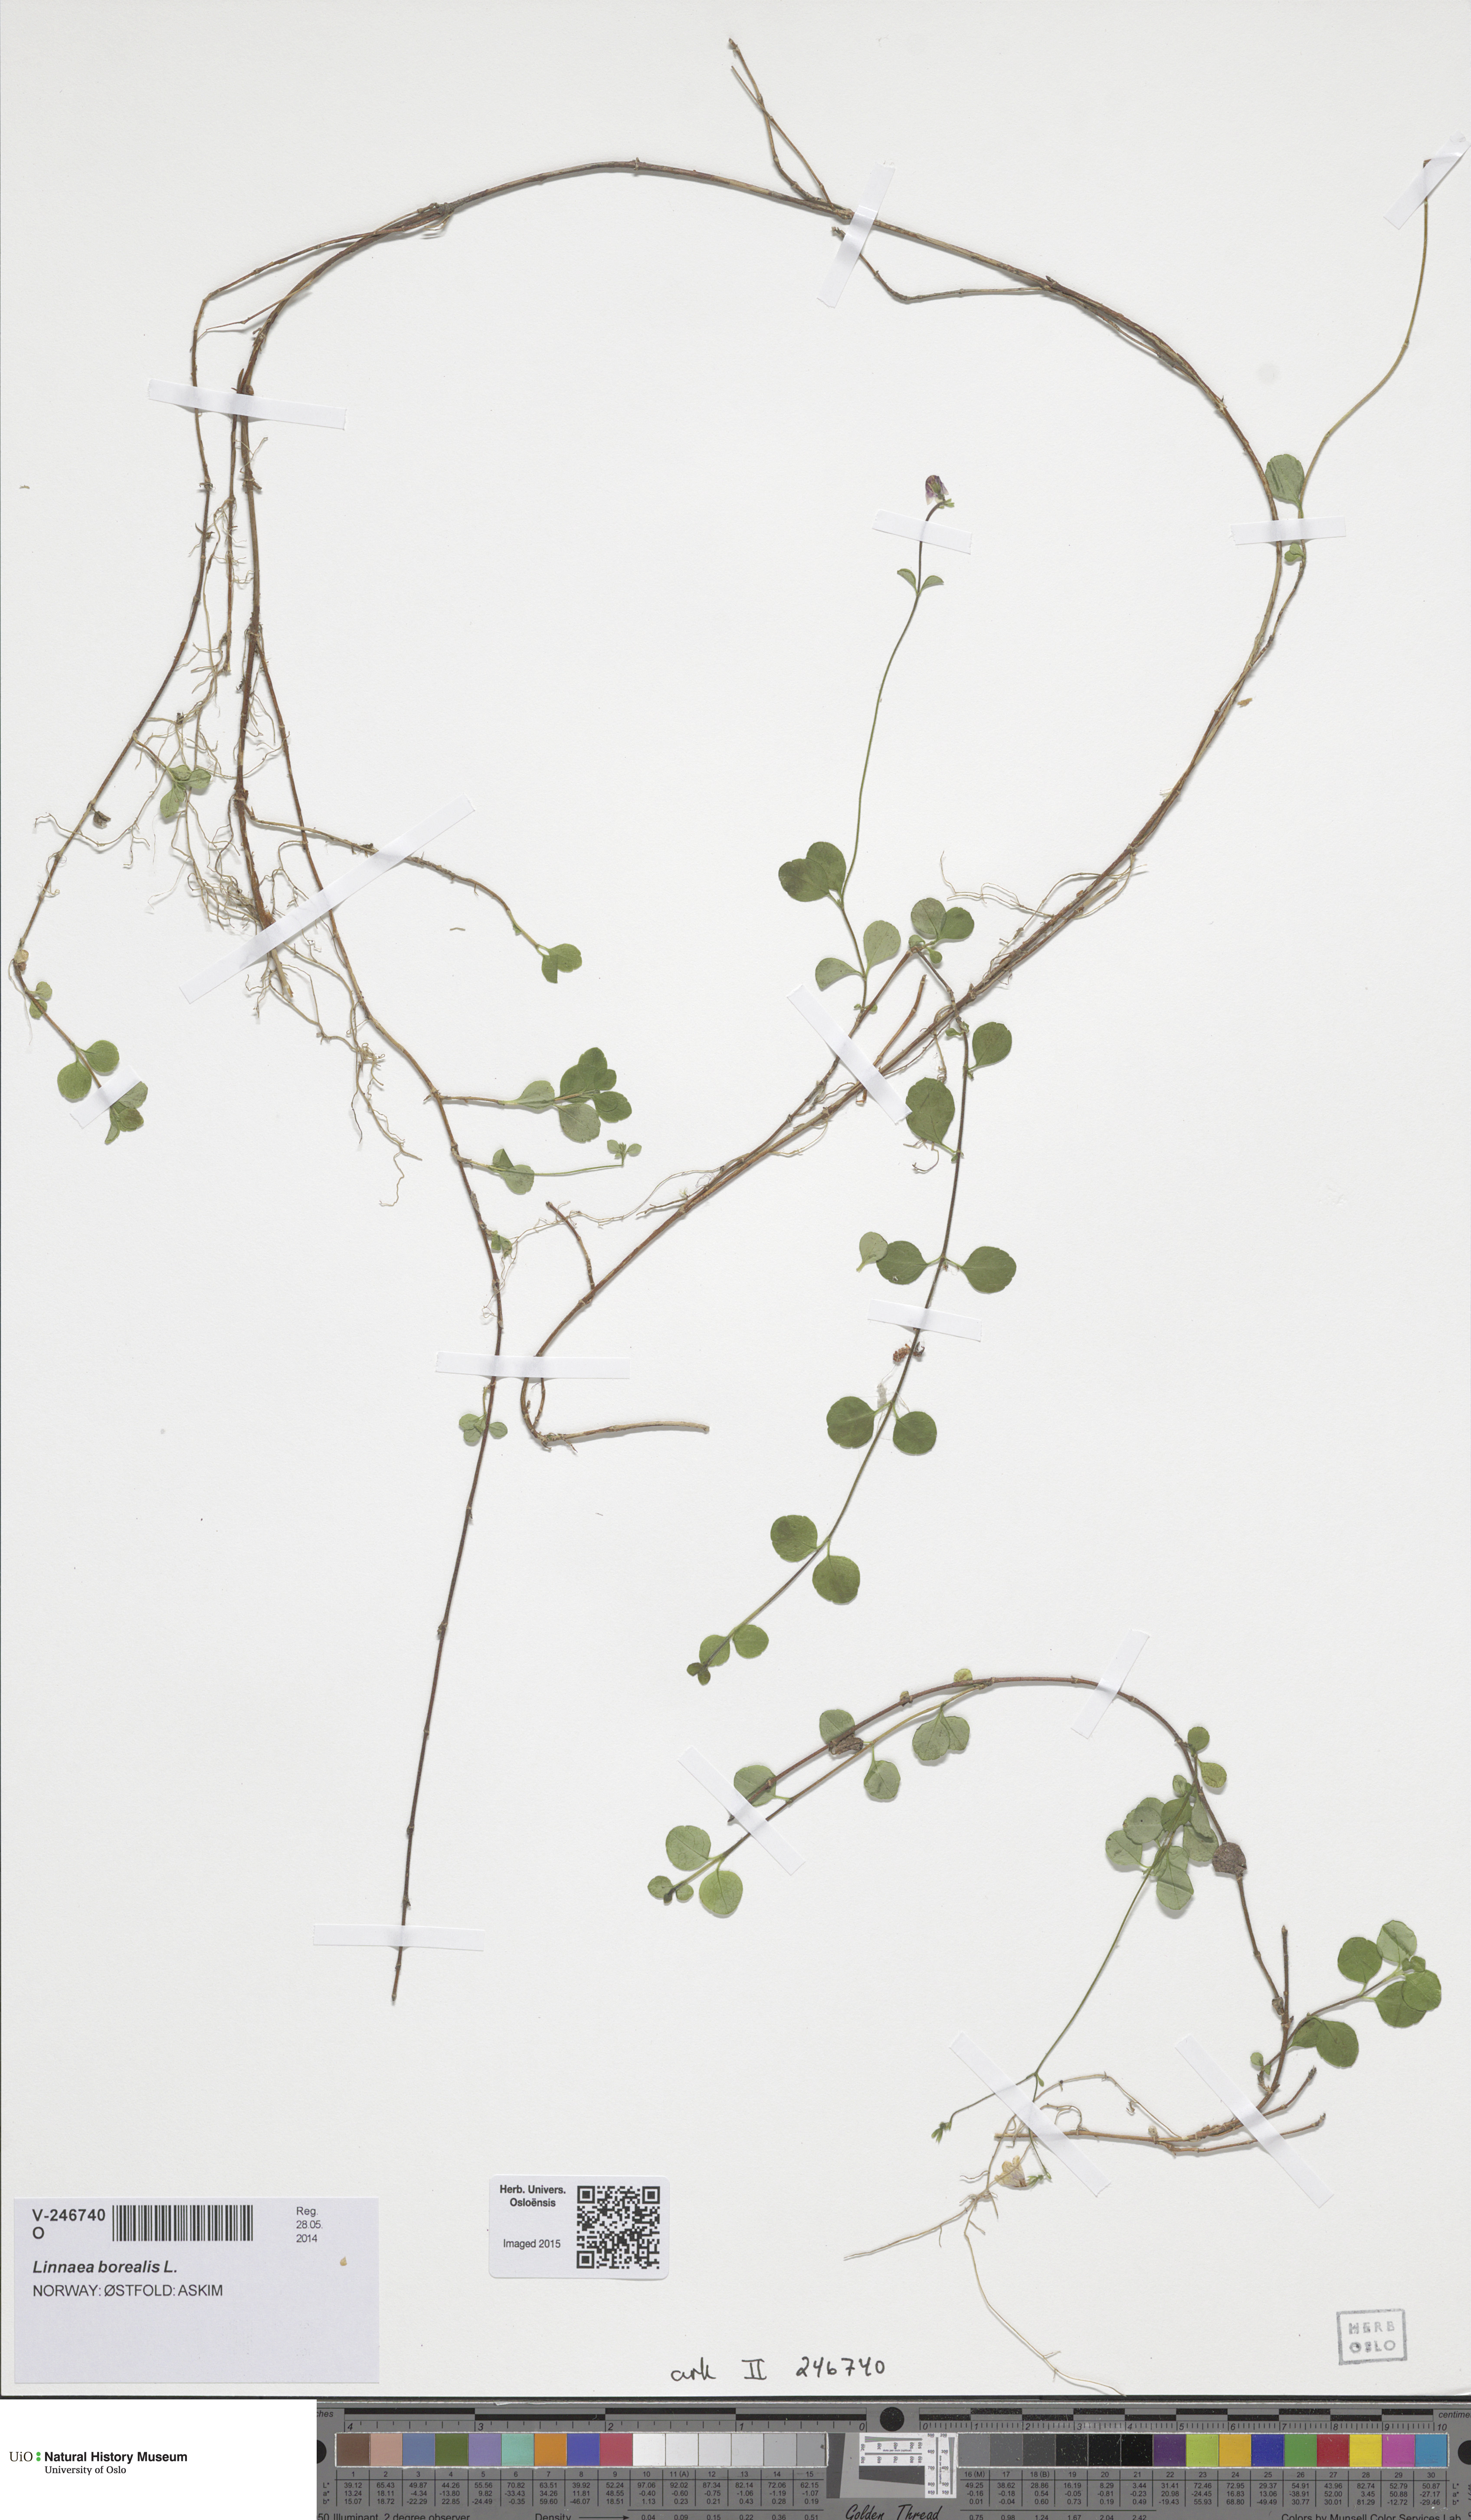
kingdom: Plantae
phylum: Tracheophyta
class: Magnoliopsida
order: Dipsacales
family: Caprifoliaceae
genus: Linnaea
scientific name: Linnaea borealis
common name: Twinflower
